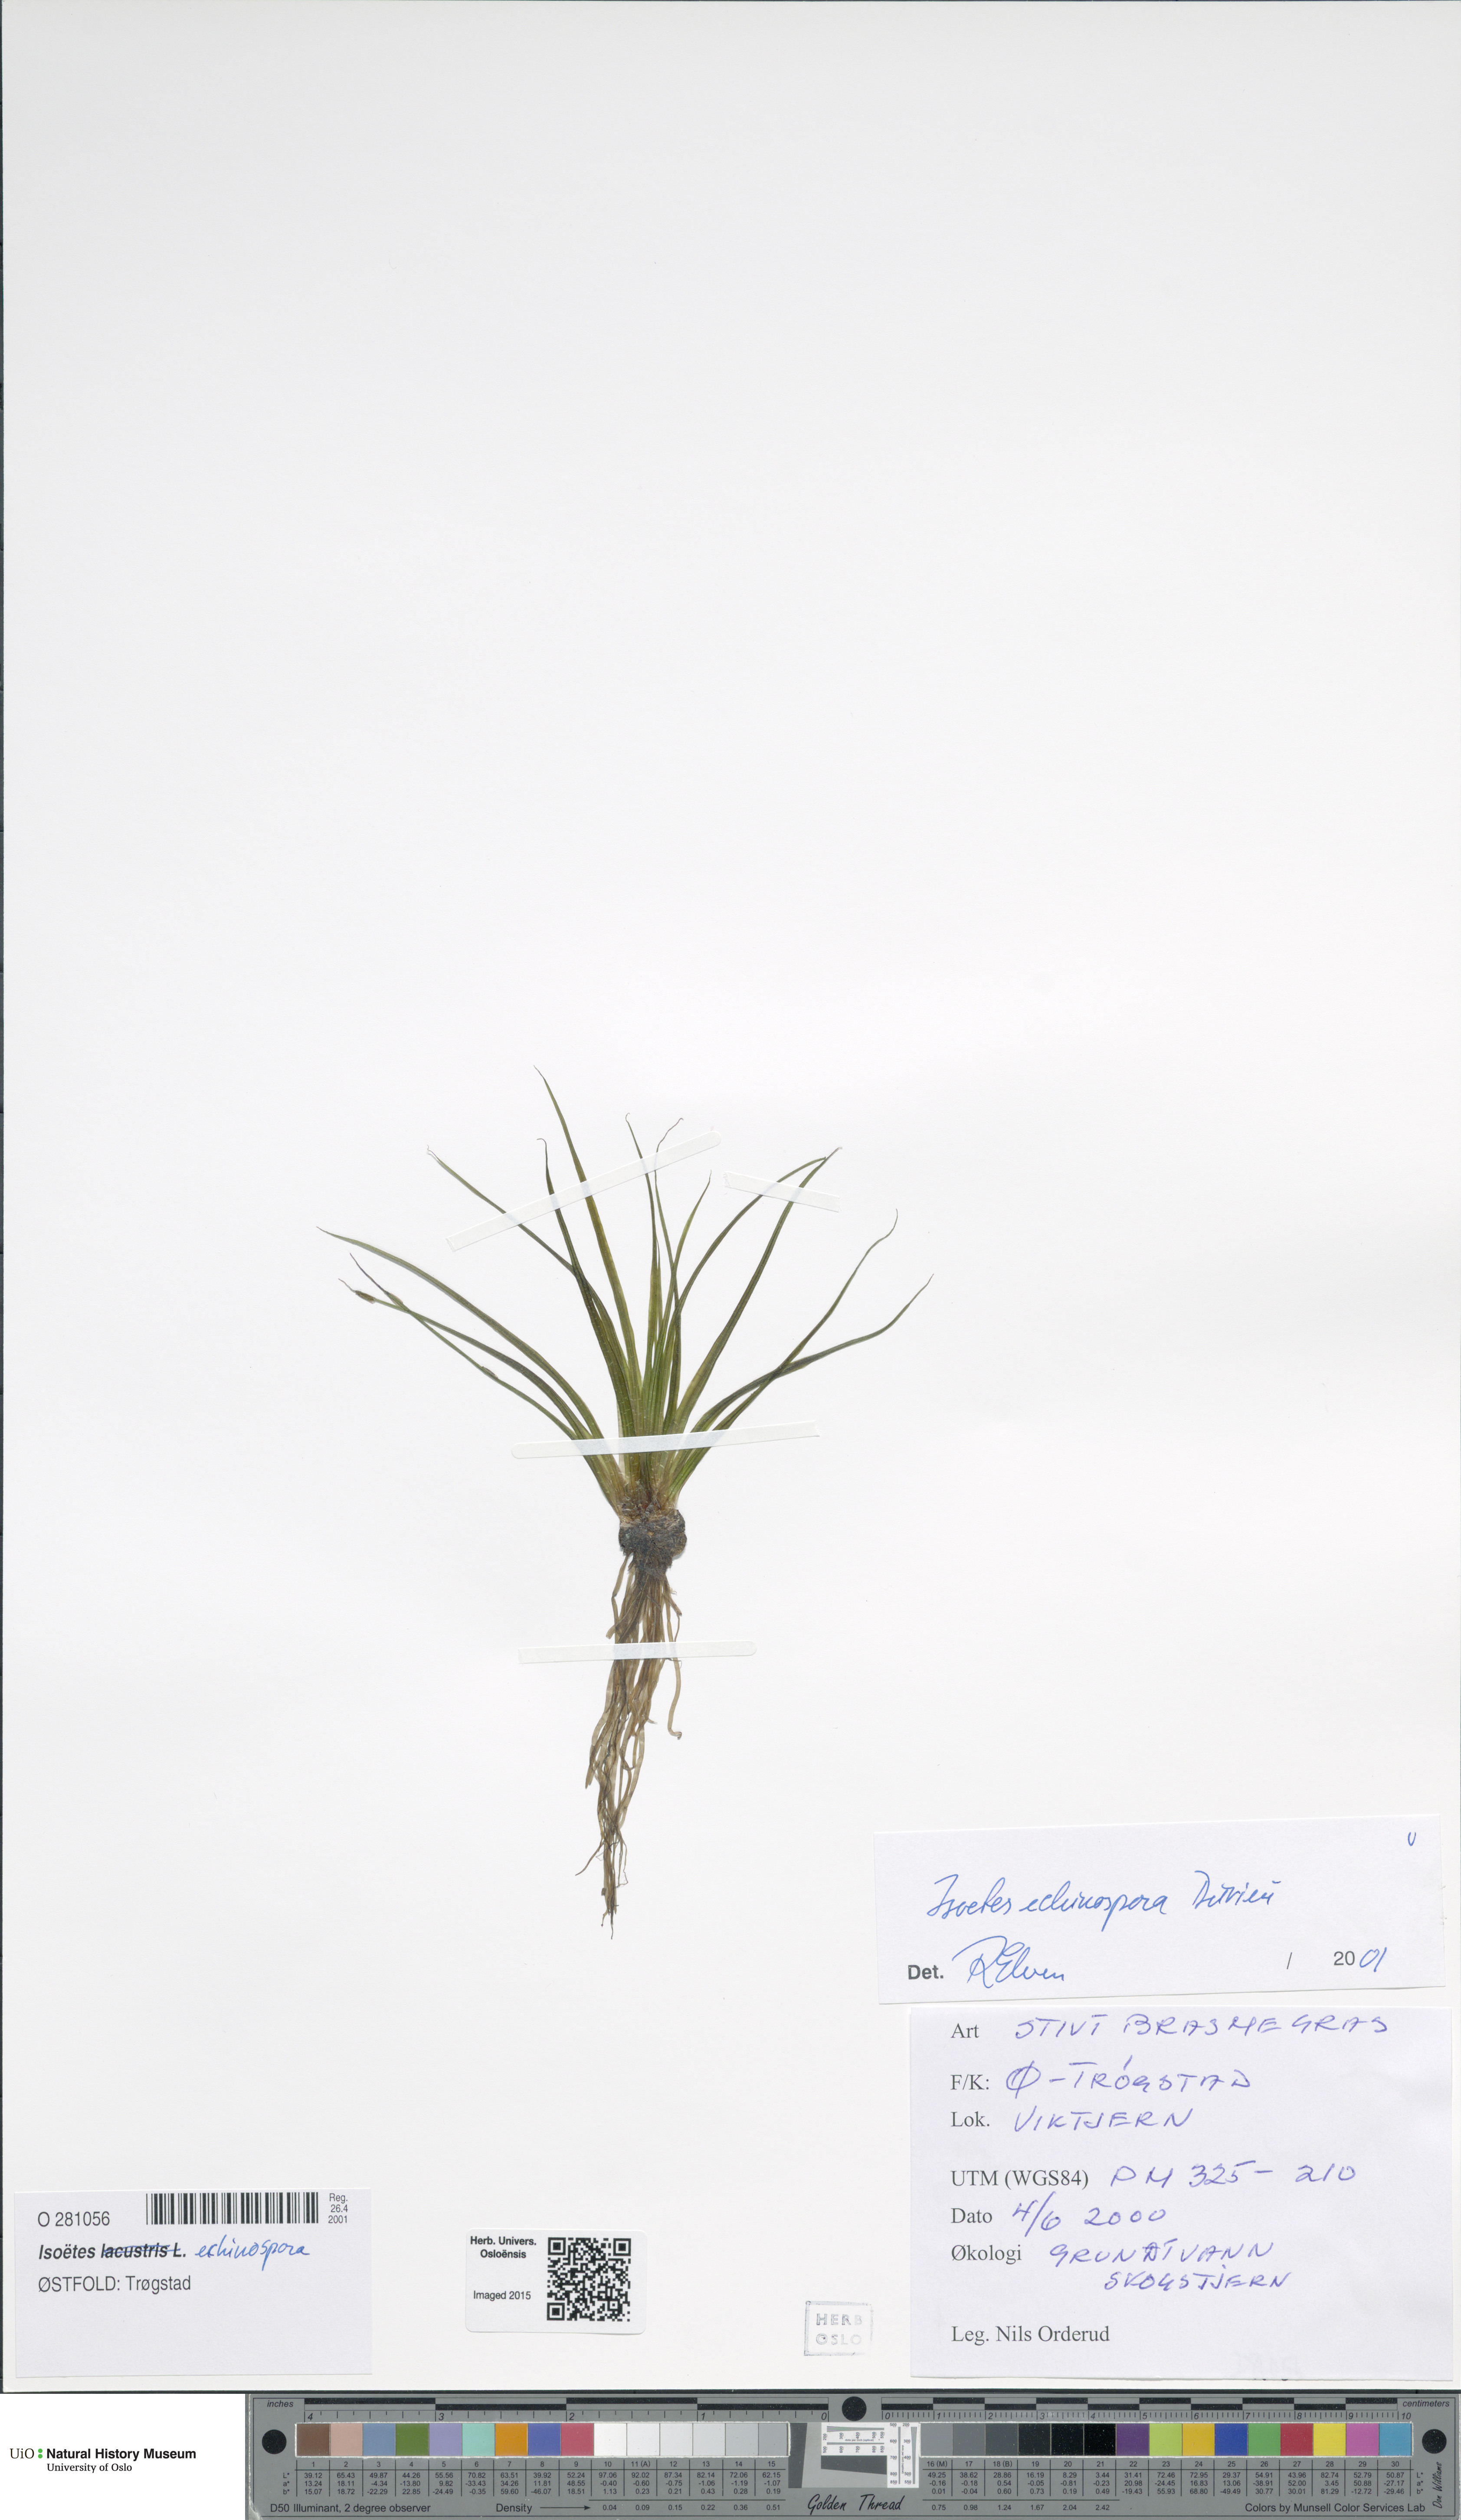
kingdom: Plantae
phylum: Tracheophyta
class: Lycopodiopsida
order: Isoetales
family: Isoetaceae
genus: Isoetes
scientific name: Isoetes echinospora
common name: Spring quillwort
